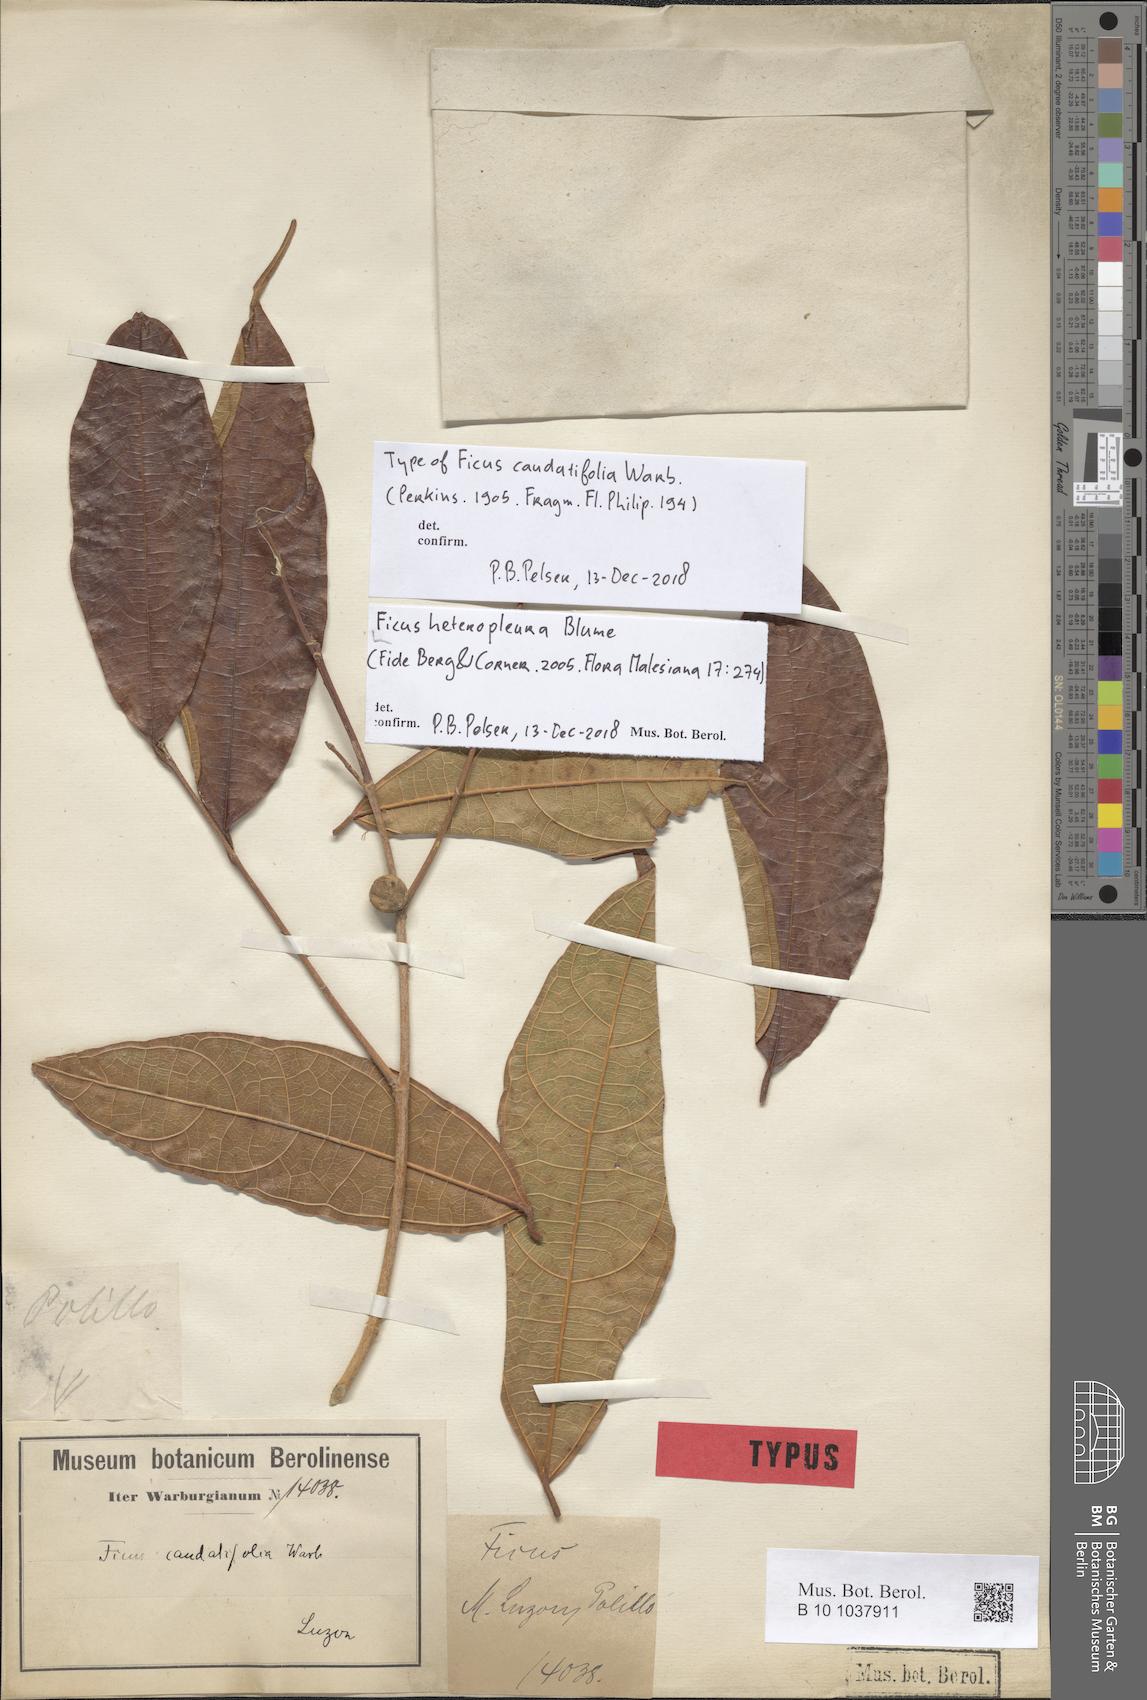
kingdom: Plantae
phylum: Tracheophyta
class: Magnoliopsida
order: Rosales
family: Moraceae
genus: Ficus
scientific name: Ficus heteropleura
